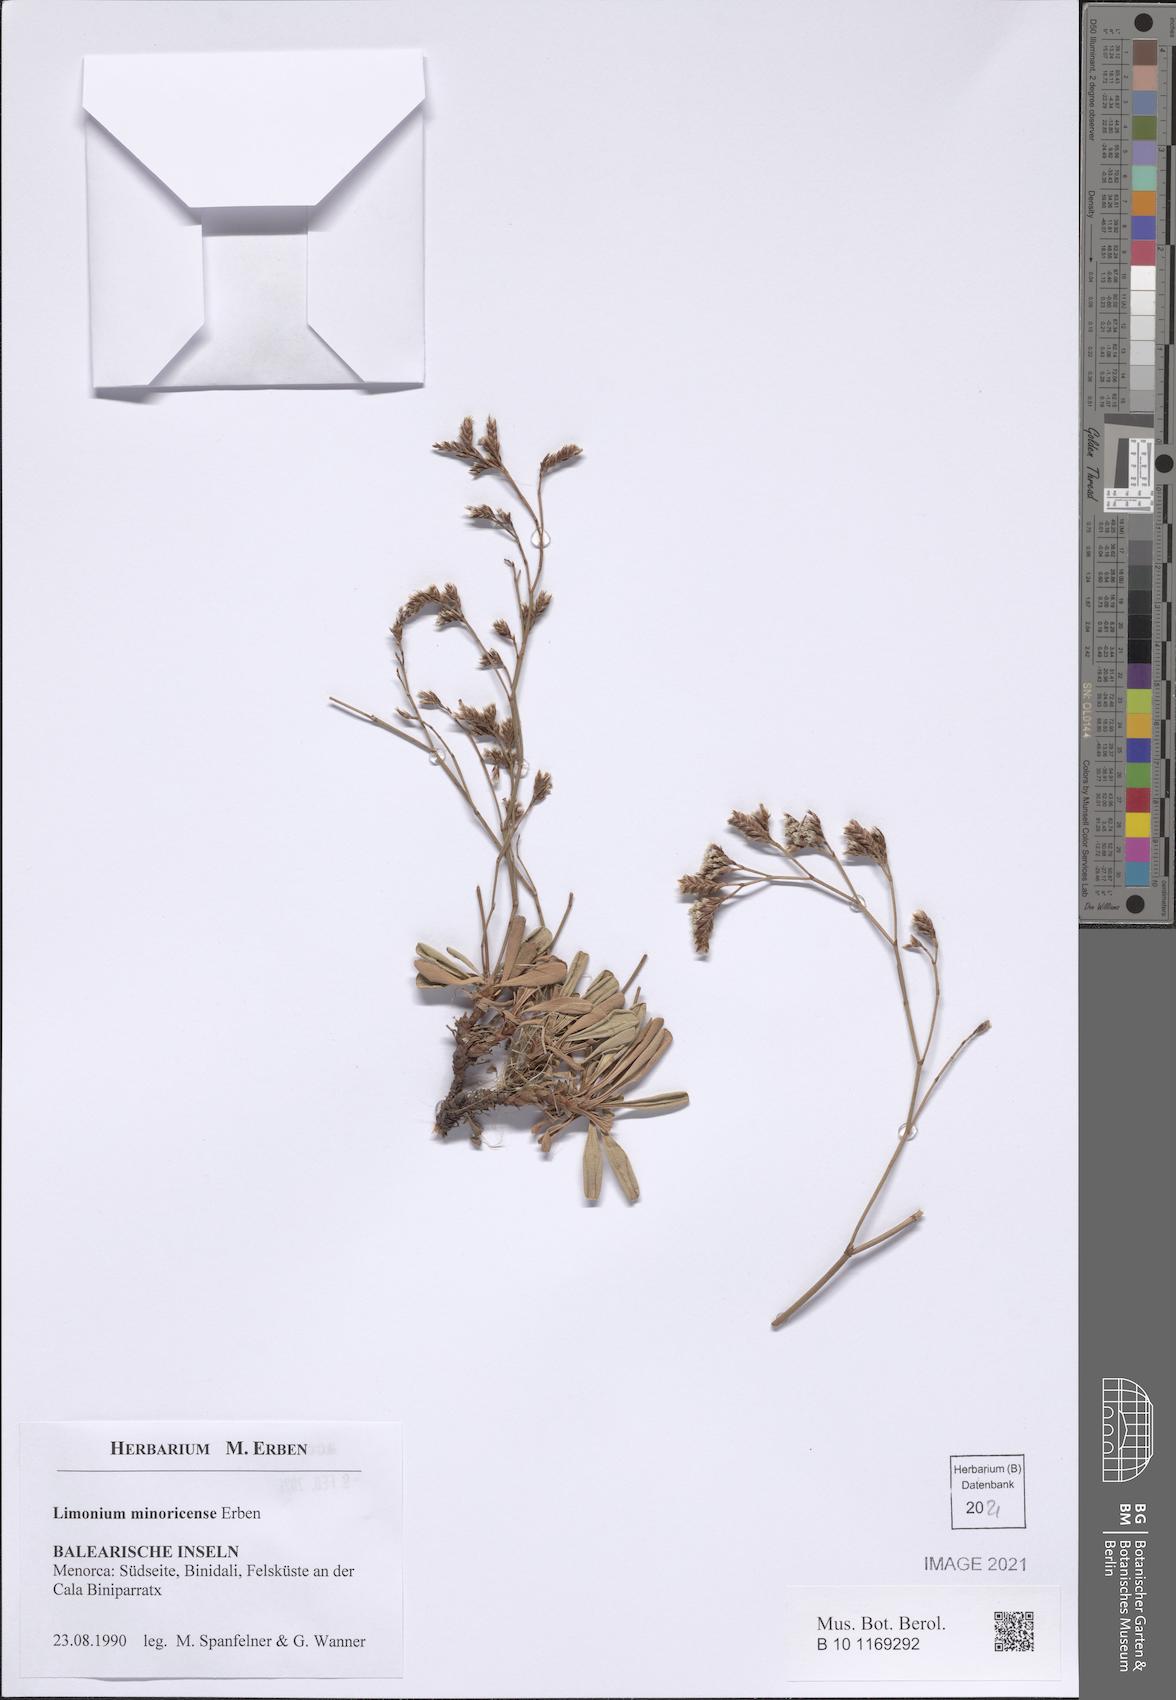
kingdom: Plantae
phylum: Tracheophyta
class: Magnoliopsida
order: Caryophyllales
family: Plumbaginaceae
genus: Limonium
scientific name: Limonium minoricense
